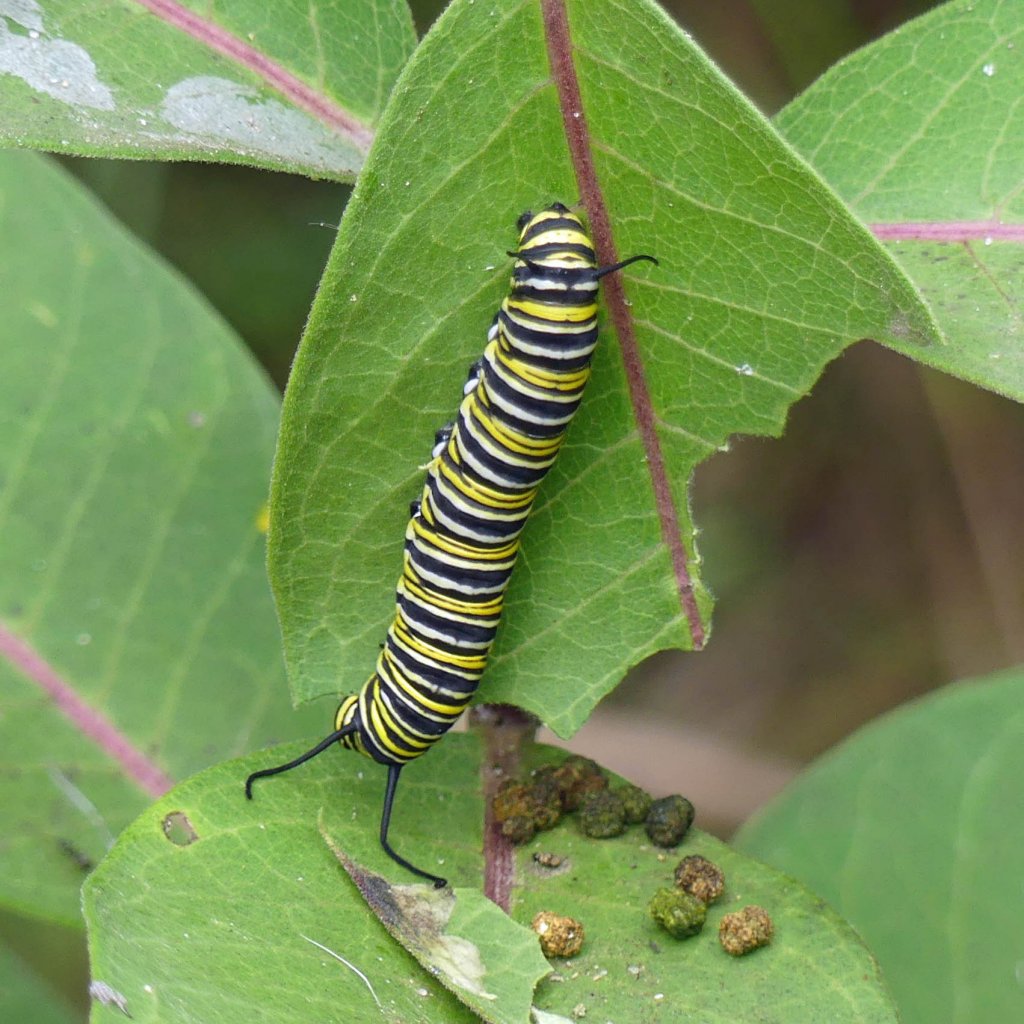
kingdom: Animalia
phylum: Arthropoda
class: Insecta
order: Lepidoptera
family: Nymphalidae
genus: Danaus
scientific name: Danaus plexippus
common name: Monarch
